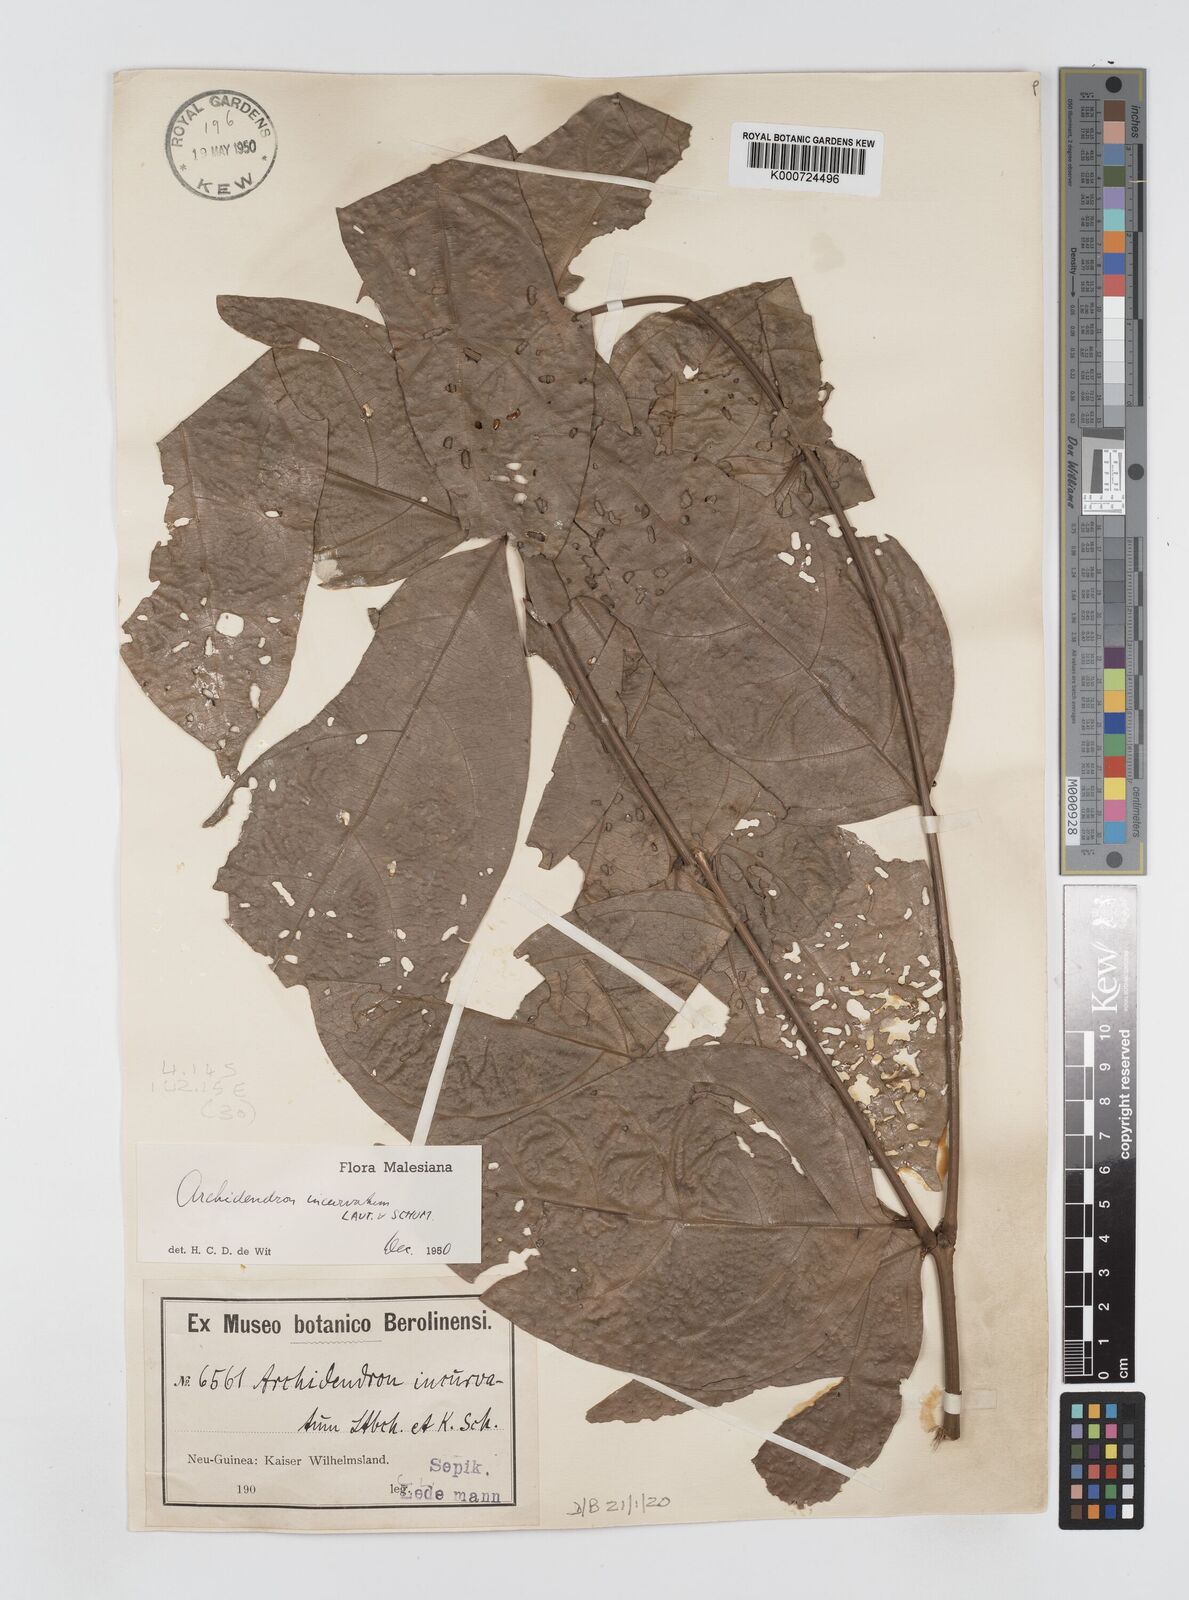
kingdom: Plantae
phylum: Tracheophyta
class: Magnoliopsida
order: Fabales
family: Fabaceae
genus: Archidendron
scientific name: Archidendron aruense
